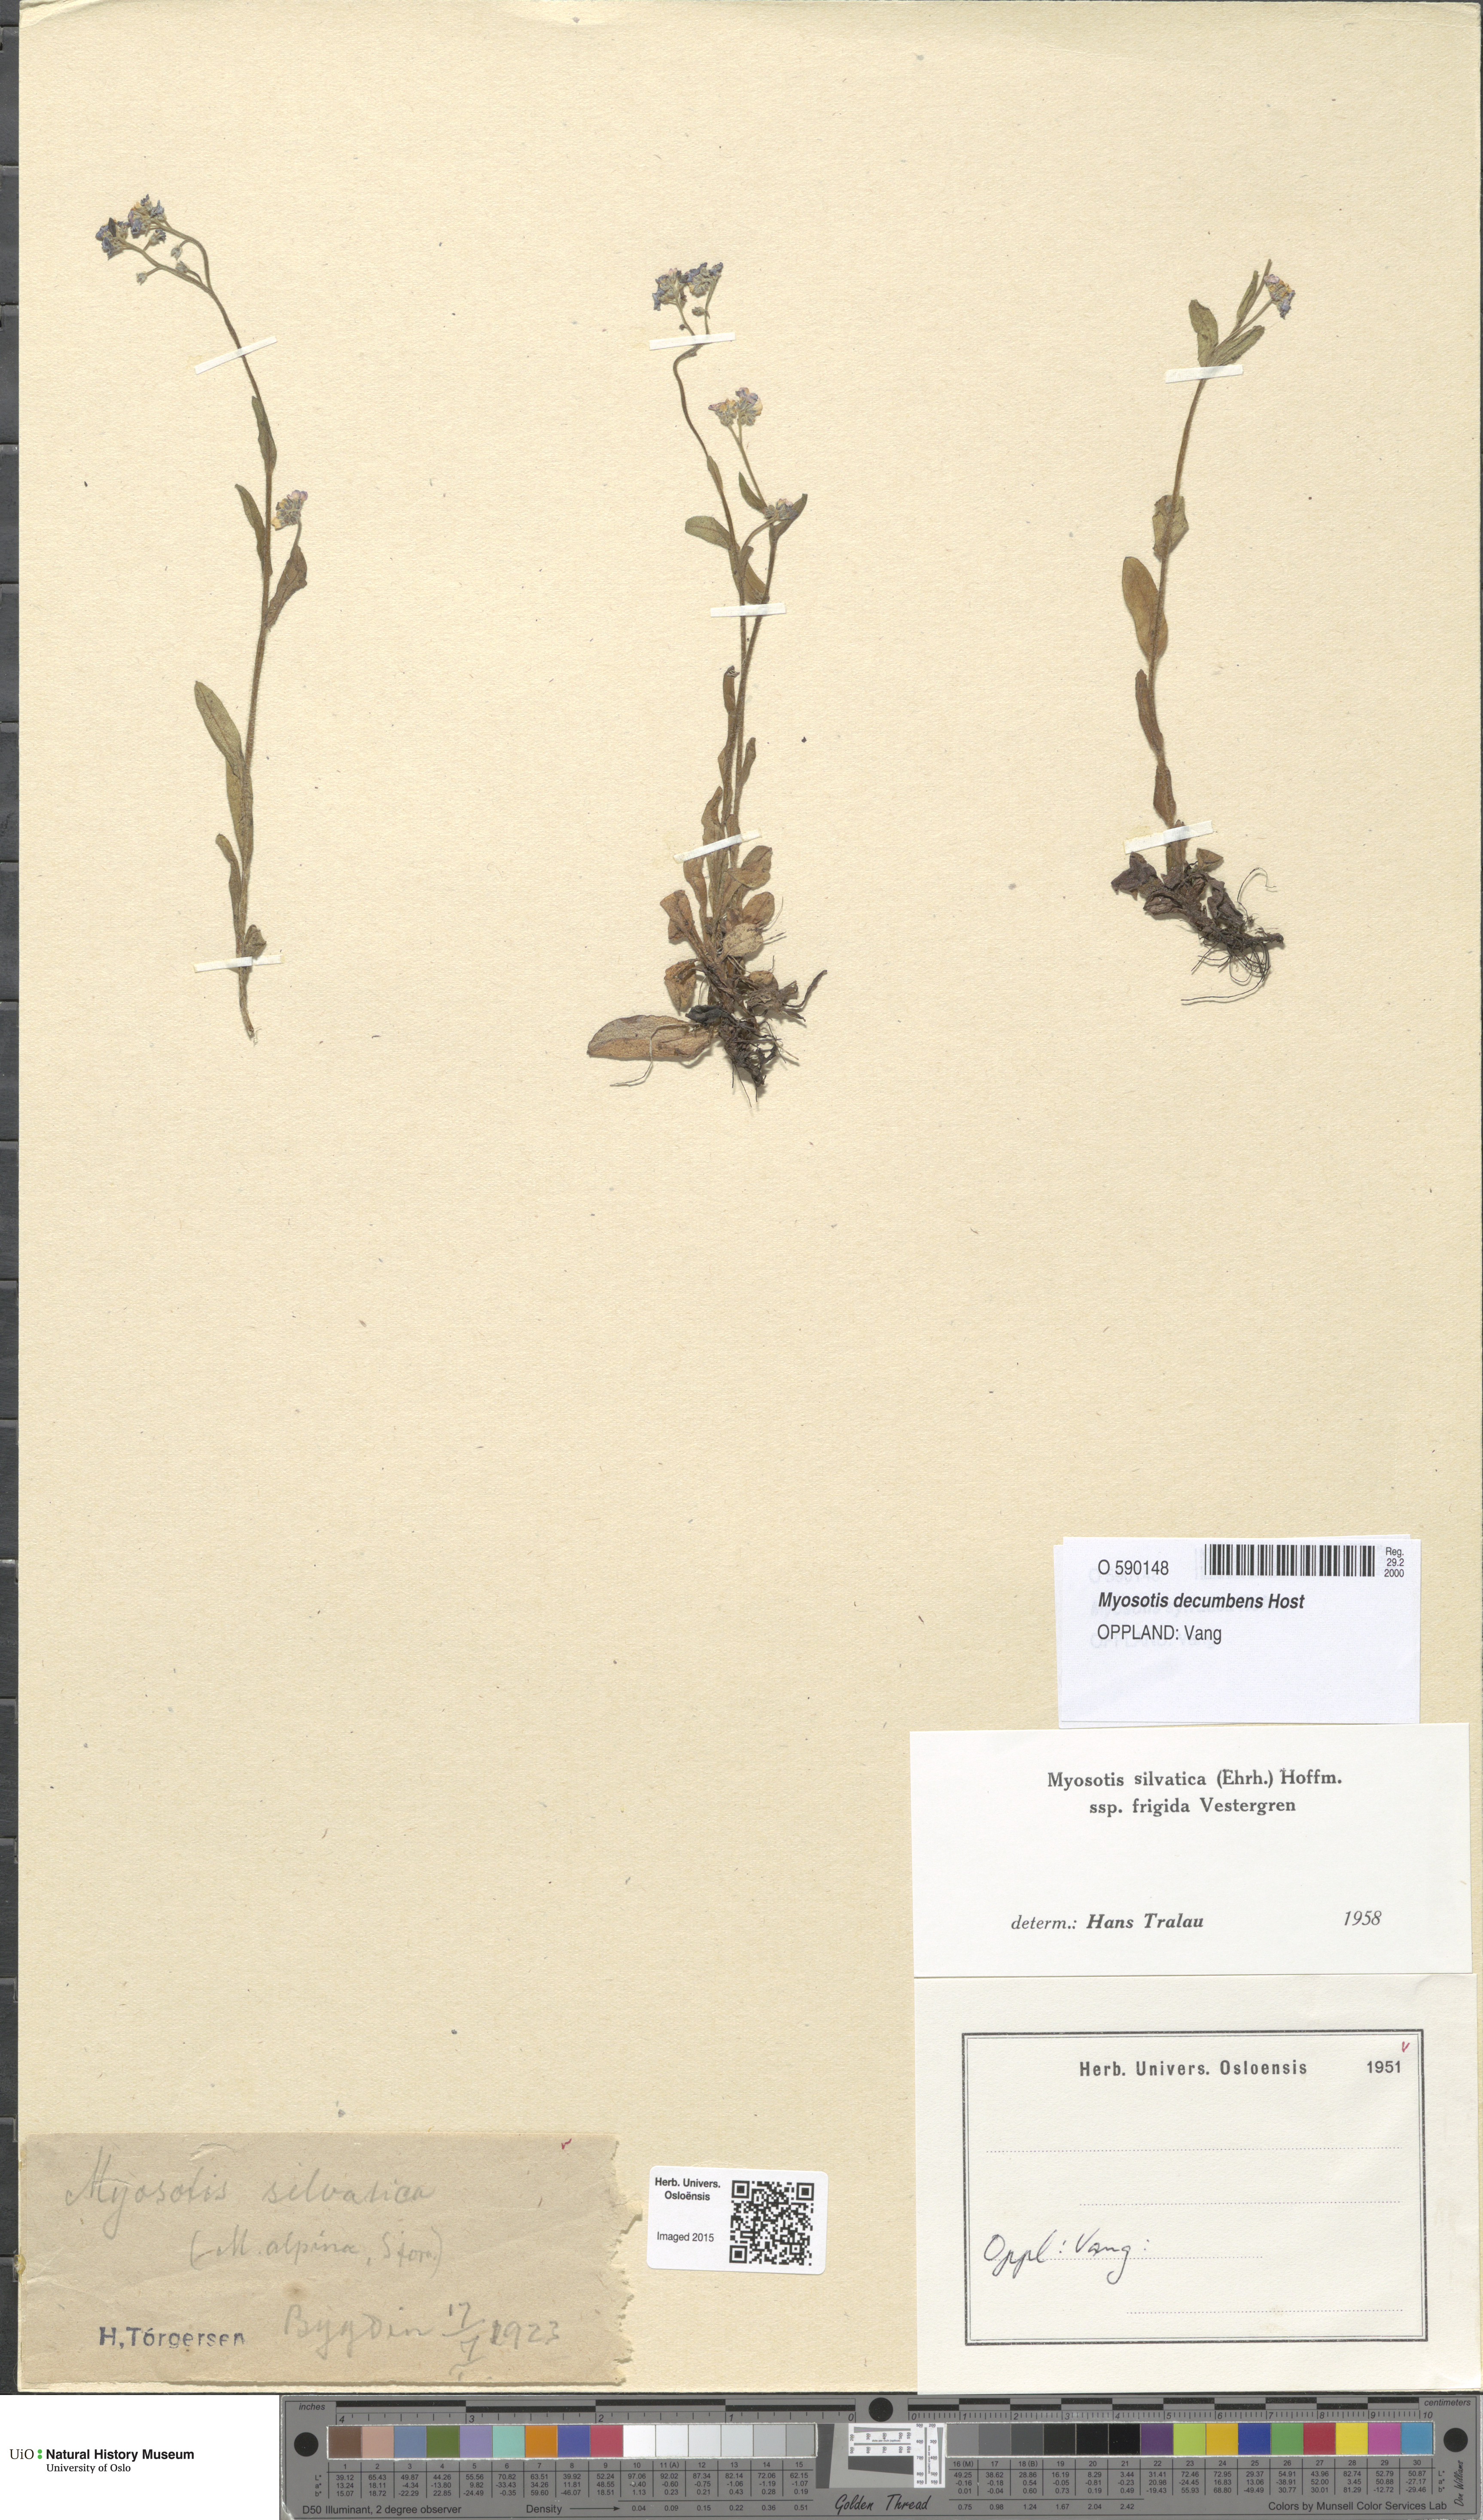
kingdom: Plantae
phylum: Tracheophyta
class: Magnoliopsida
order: Boraginales
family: Boraginaceae
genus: Myosotis
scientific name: Myosotis decumbens
